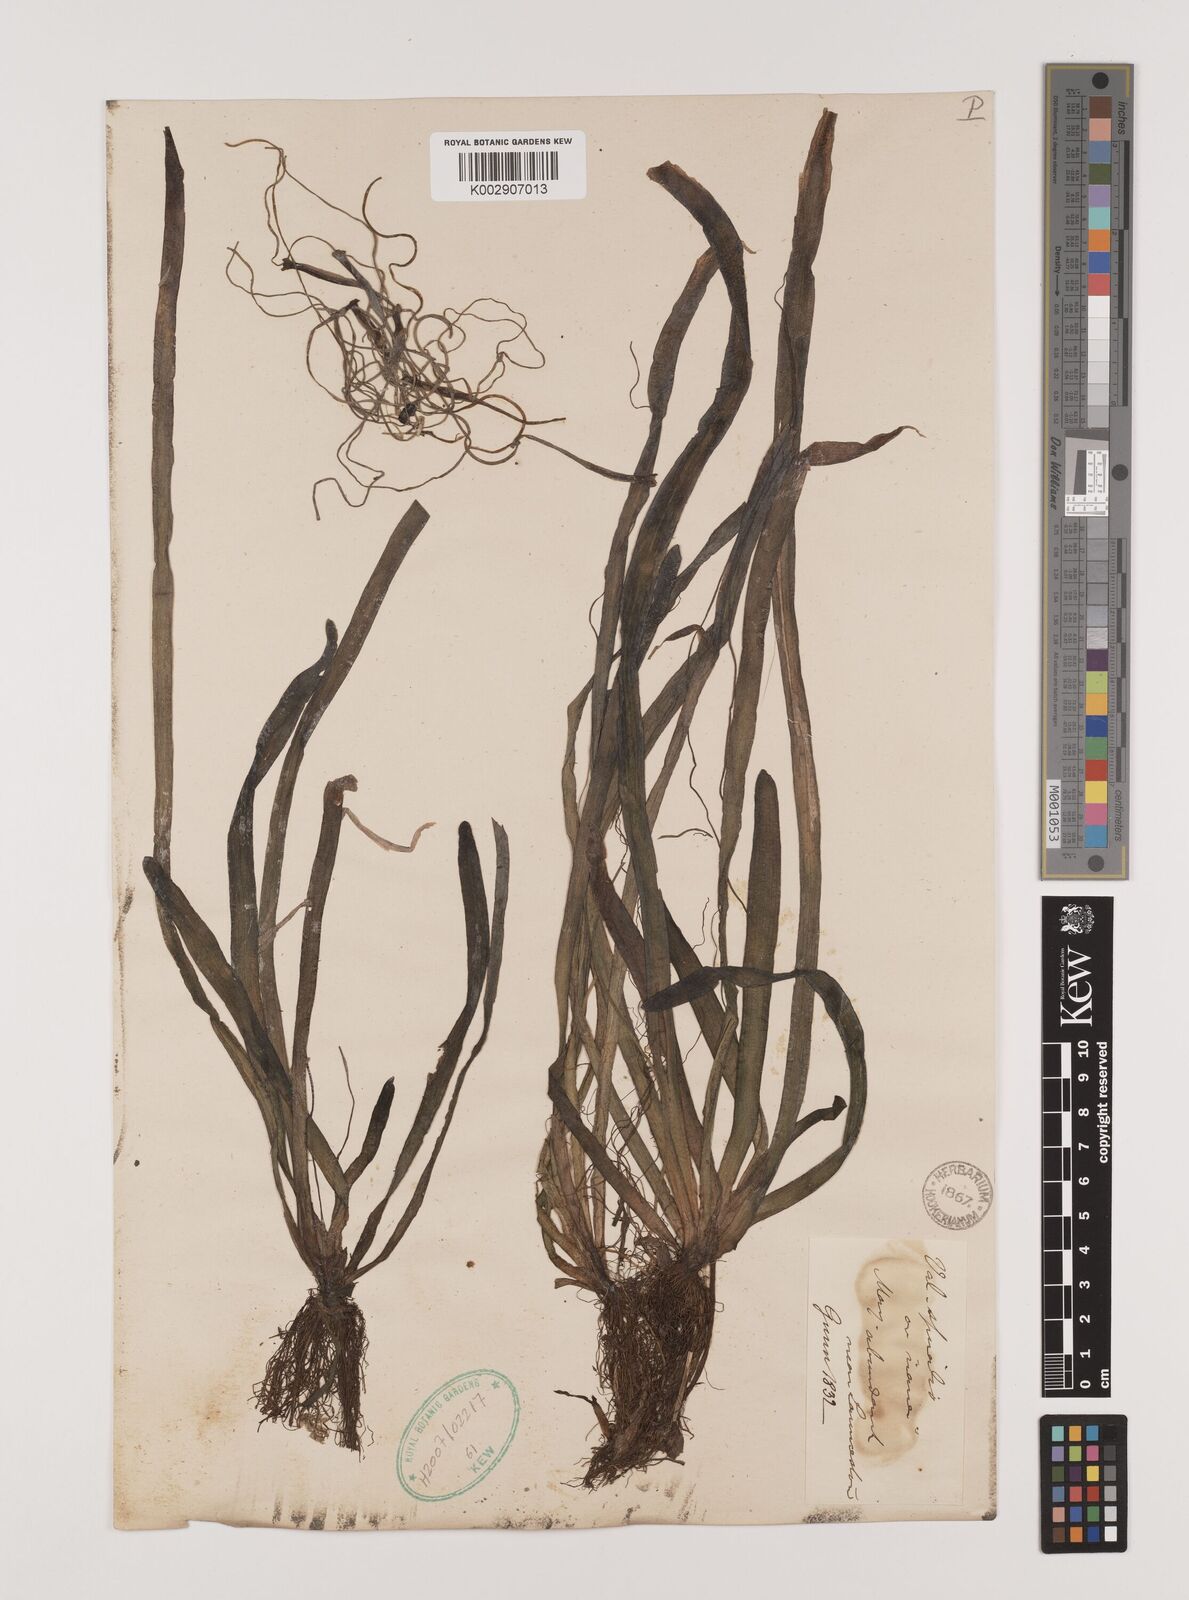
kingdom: Plantae
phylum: Tracheophyta
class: Liliopsida
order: Alismatales
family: Hydrocharitaceae
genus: Vallisneria
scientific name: Vallisneria spiralis
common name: Tapegrass
